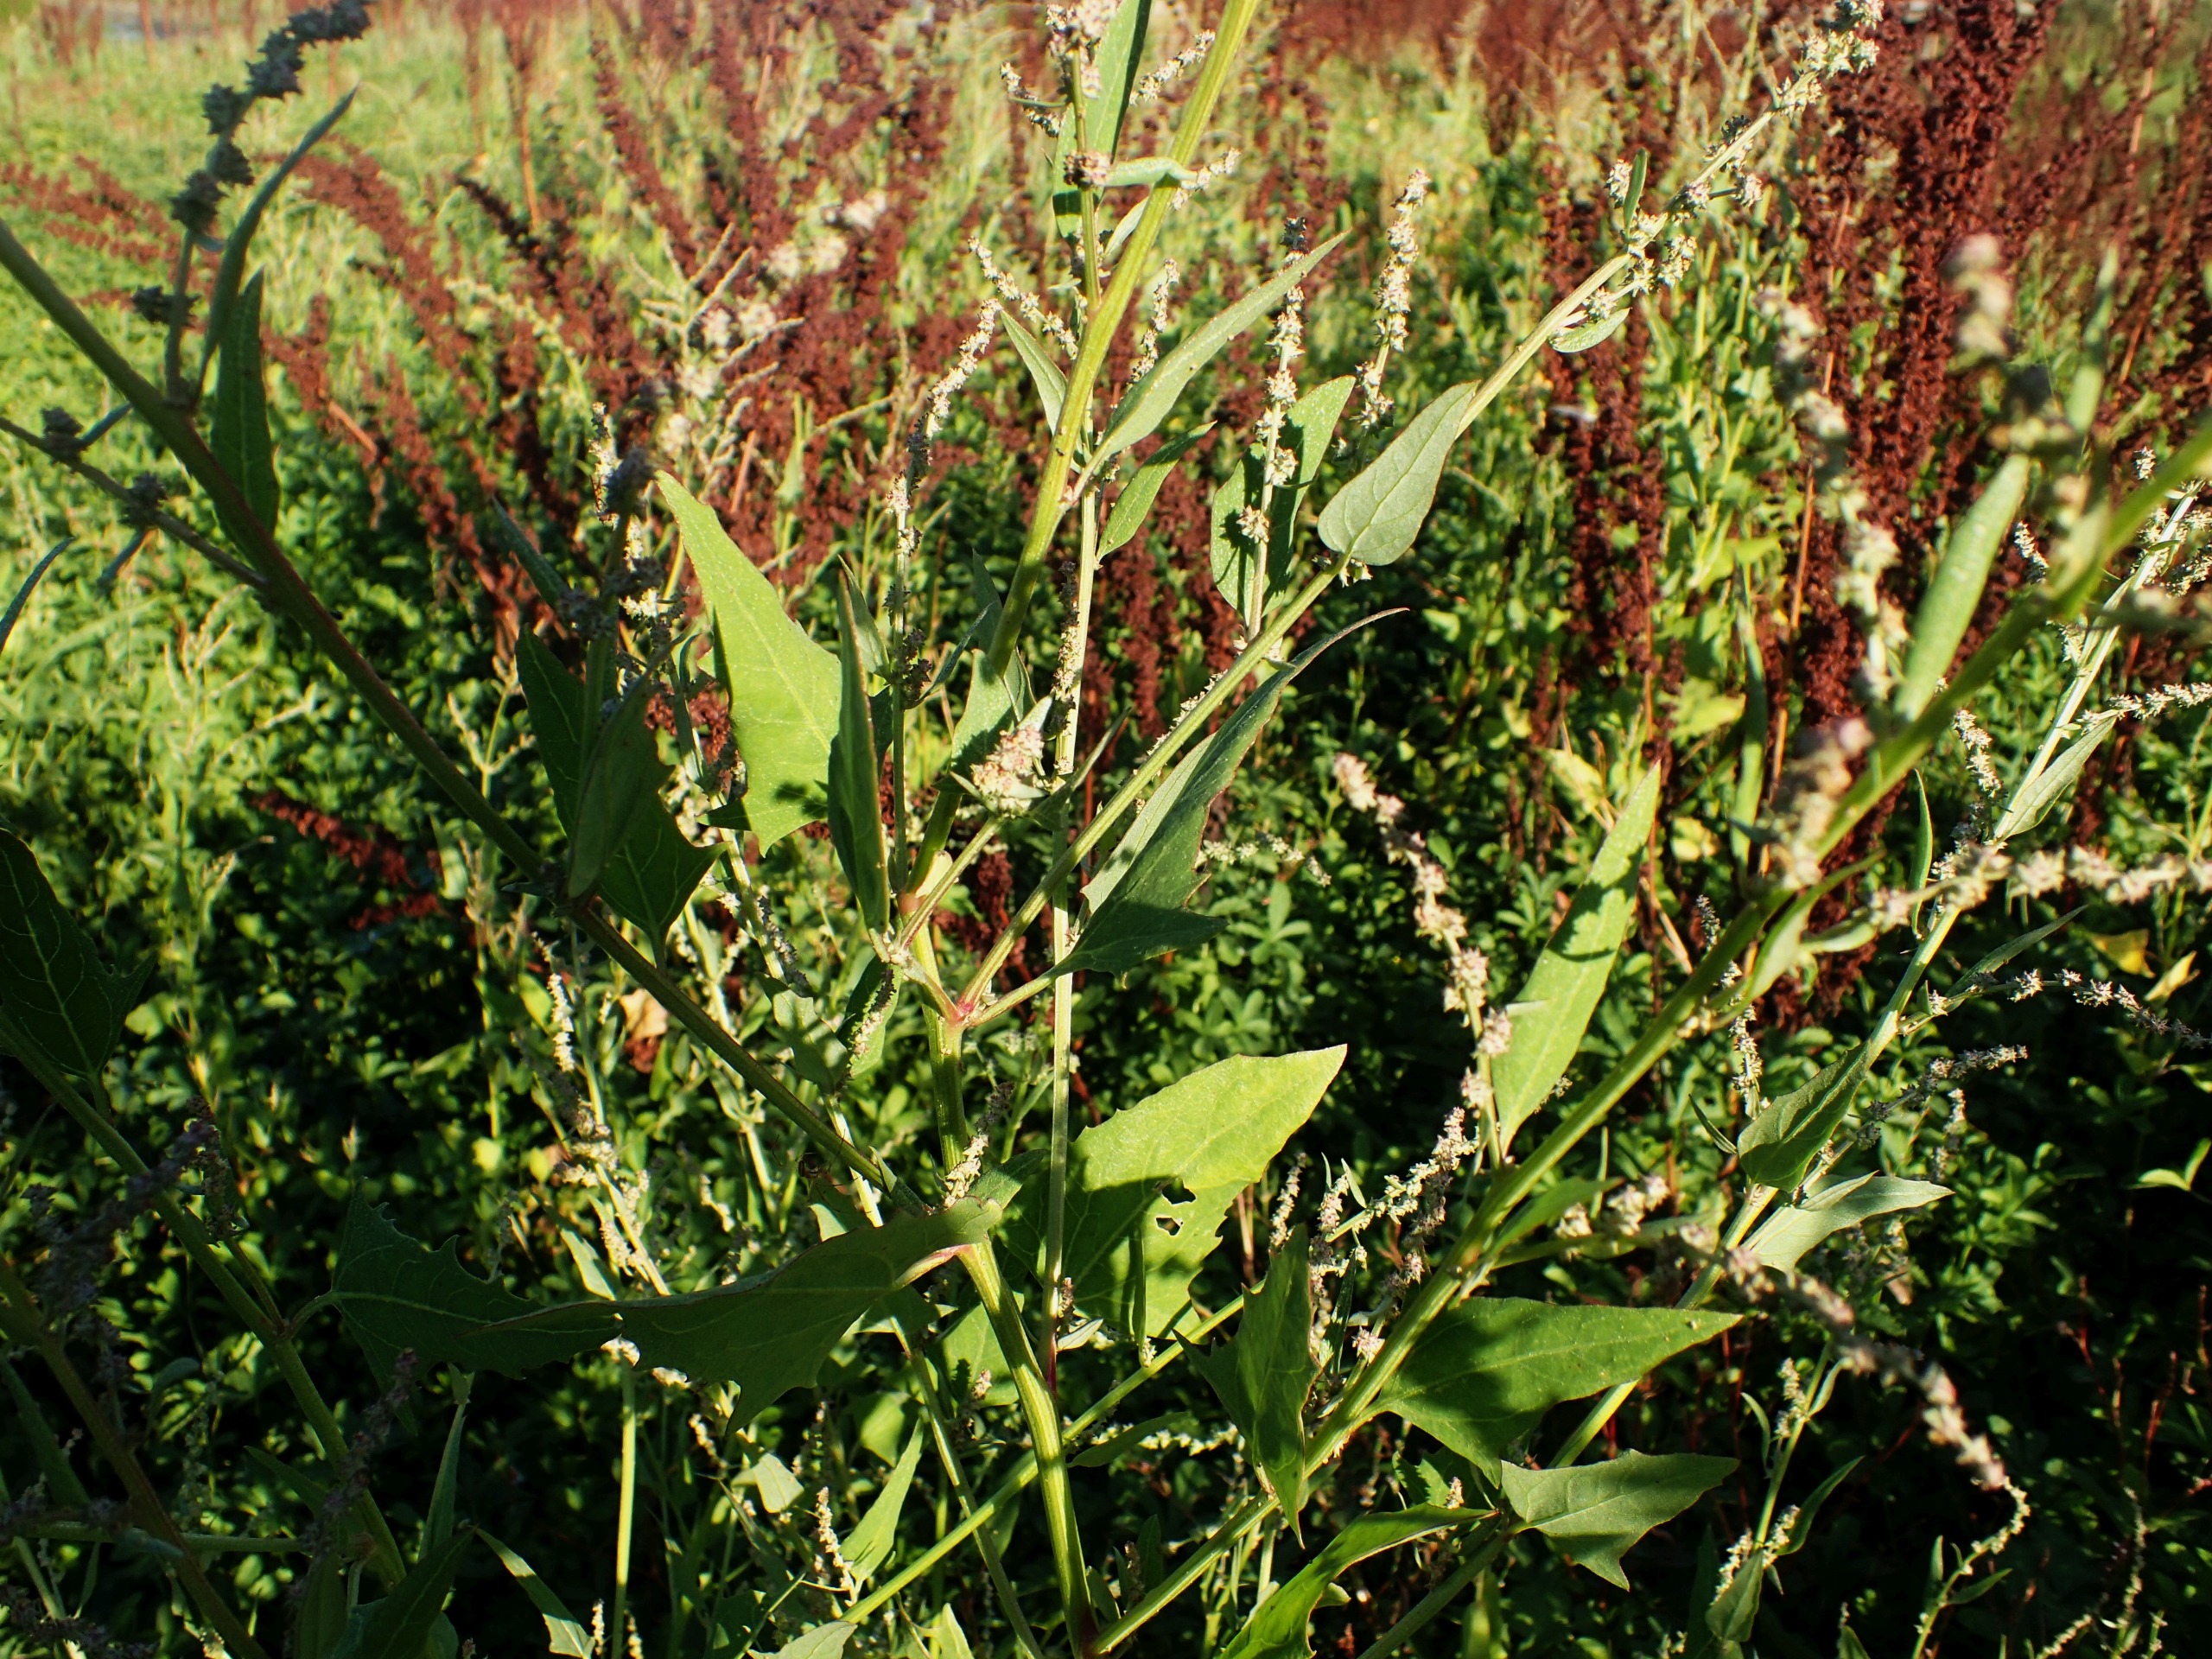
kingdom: Plantae
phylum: Tracheophyta
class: Magnoliopsida
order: Caryophyllales
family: Amaranthaceae
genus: Atriplex
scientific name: Atriplex prostrata
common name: Spyd-mælde
